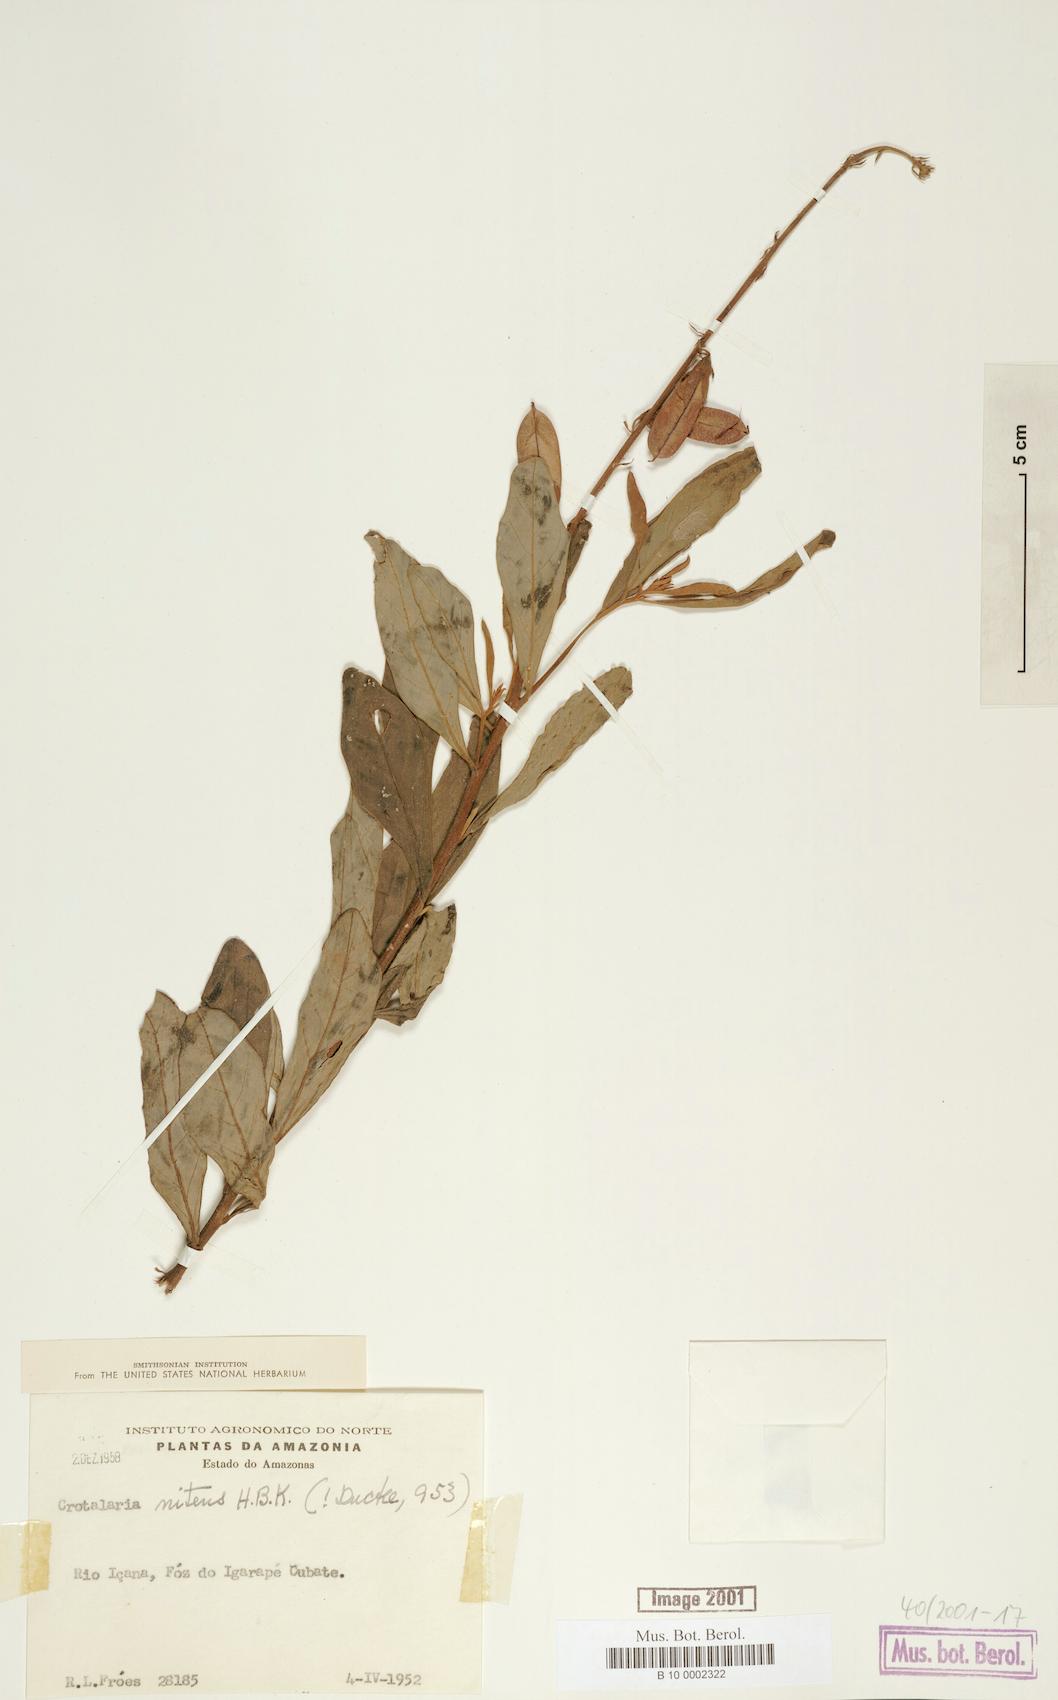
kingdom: Plantae
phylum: Tracheophyta
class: Magnoliopsida
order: Fabales
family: Fabaceae
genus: Crotalaria
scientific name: Crotalaria nitens
